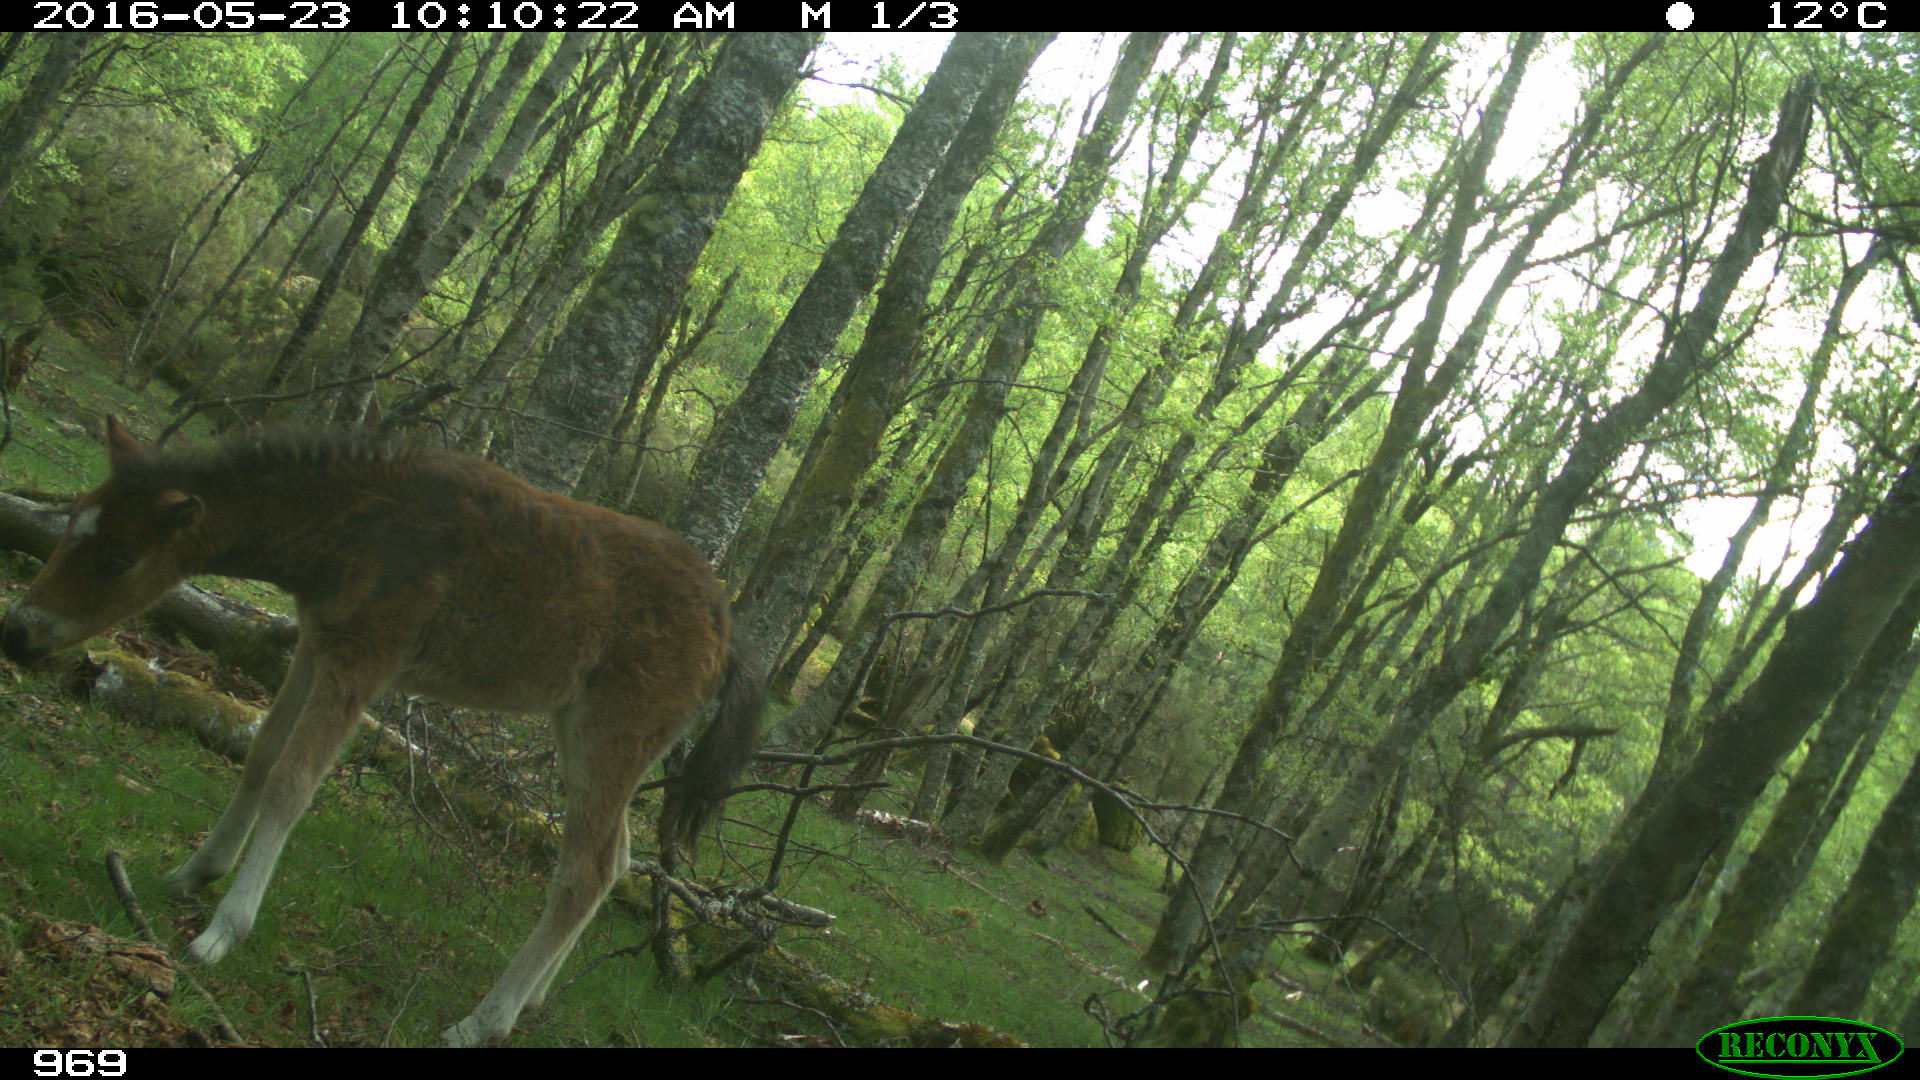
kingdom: Animalia
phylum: Chordata
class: Mammalia
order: Perissodactyla
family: Equidae
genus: Equus
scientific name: Equus caballus
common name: Horse
